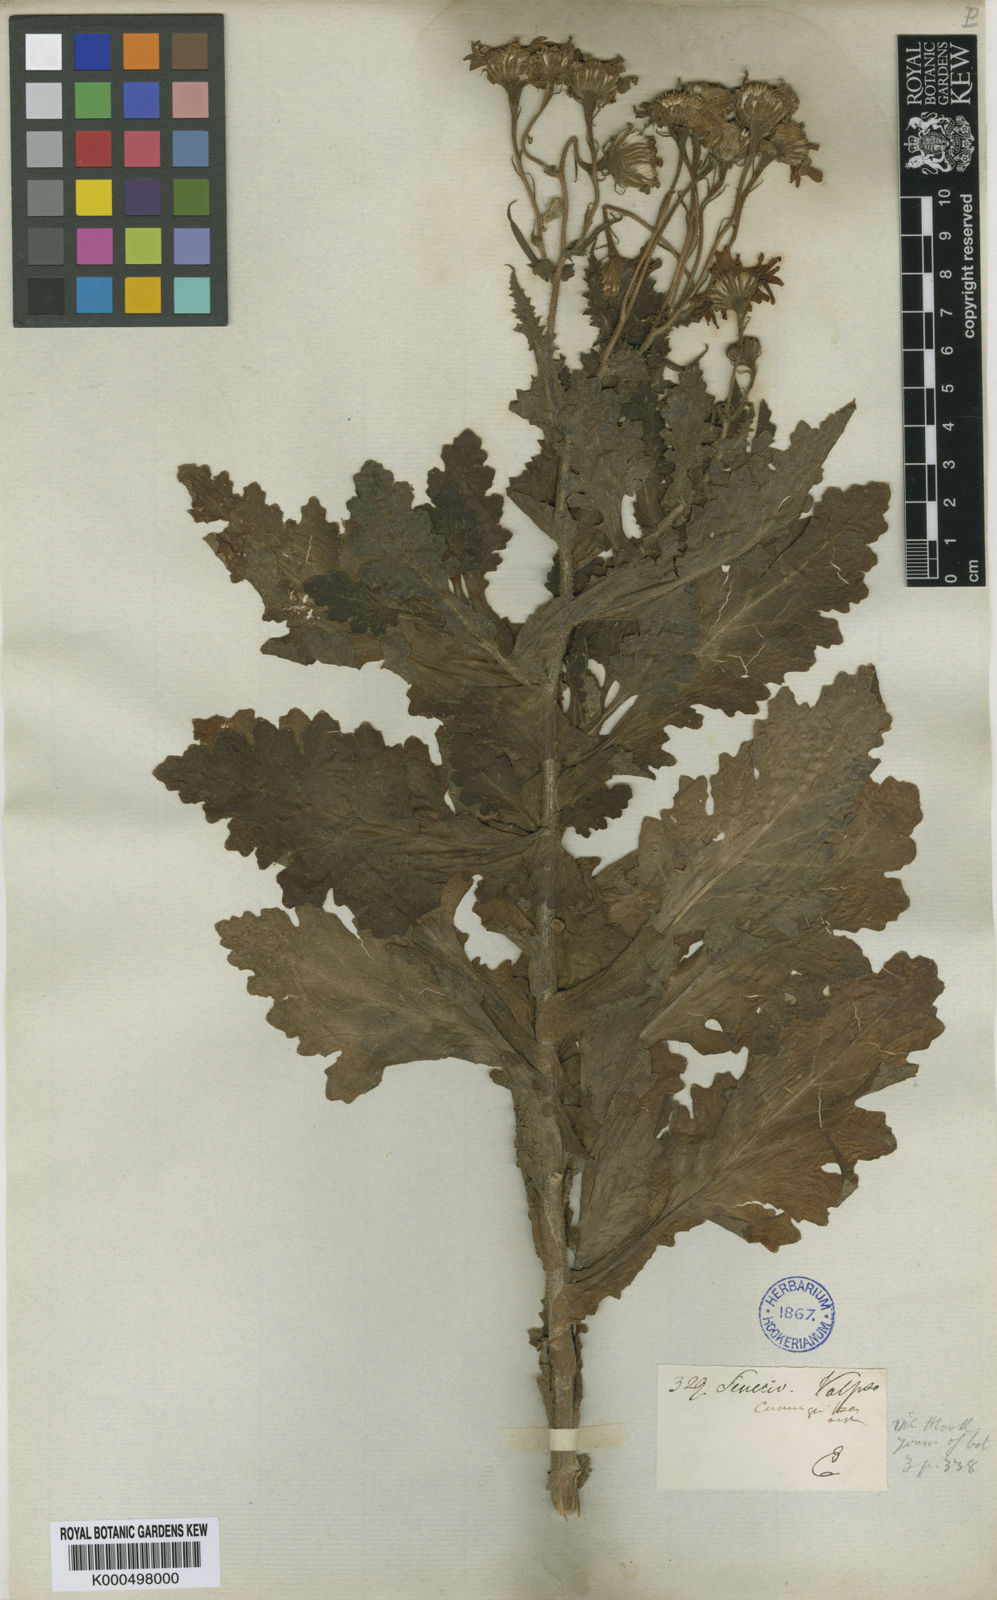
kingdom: Plantae
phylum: Tracheophyta
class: Magnoliopsida
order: Asterales
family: Asteraceae
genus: Senecio
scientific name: Senecio cumingii
